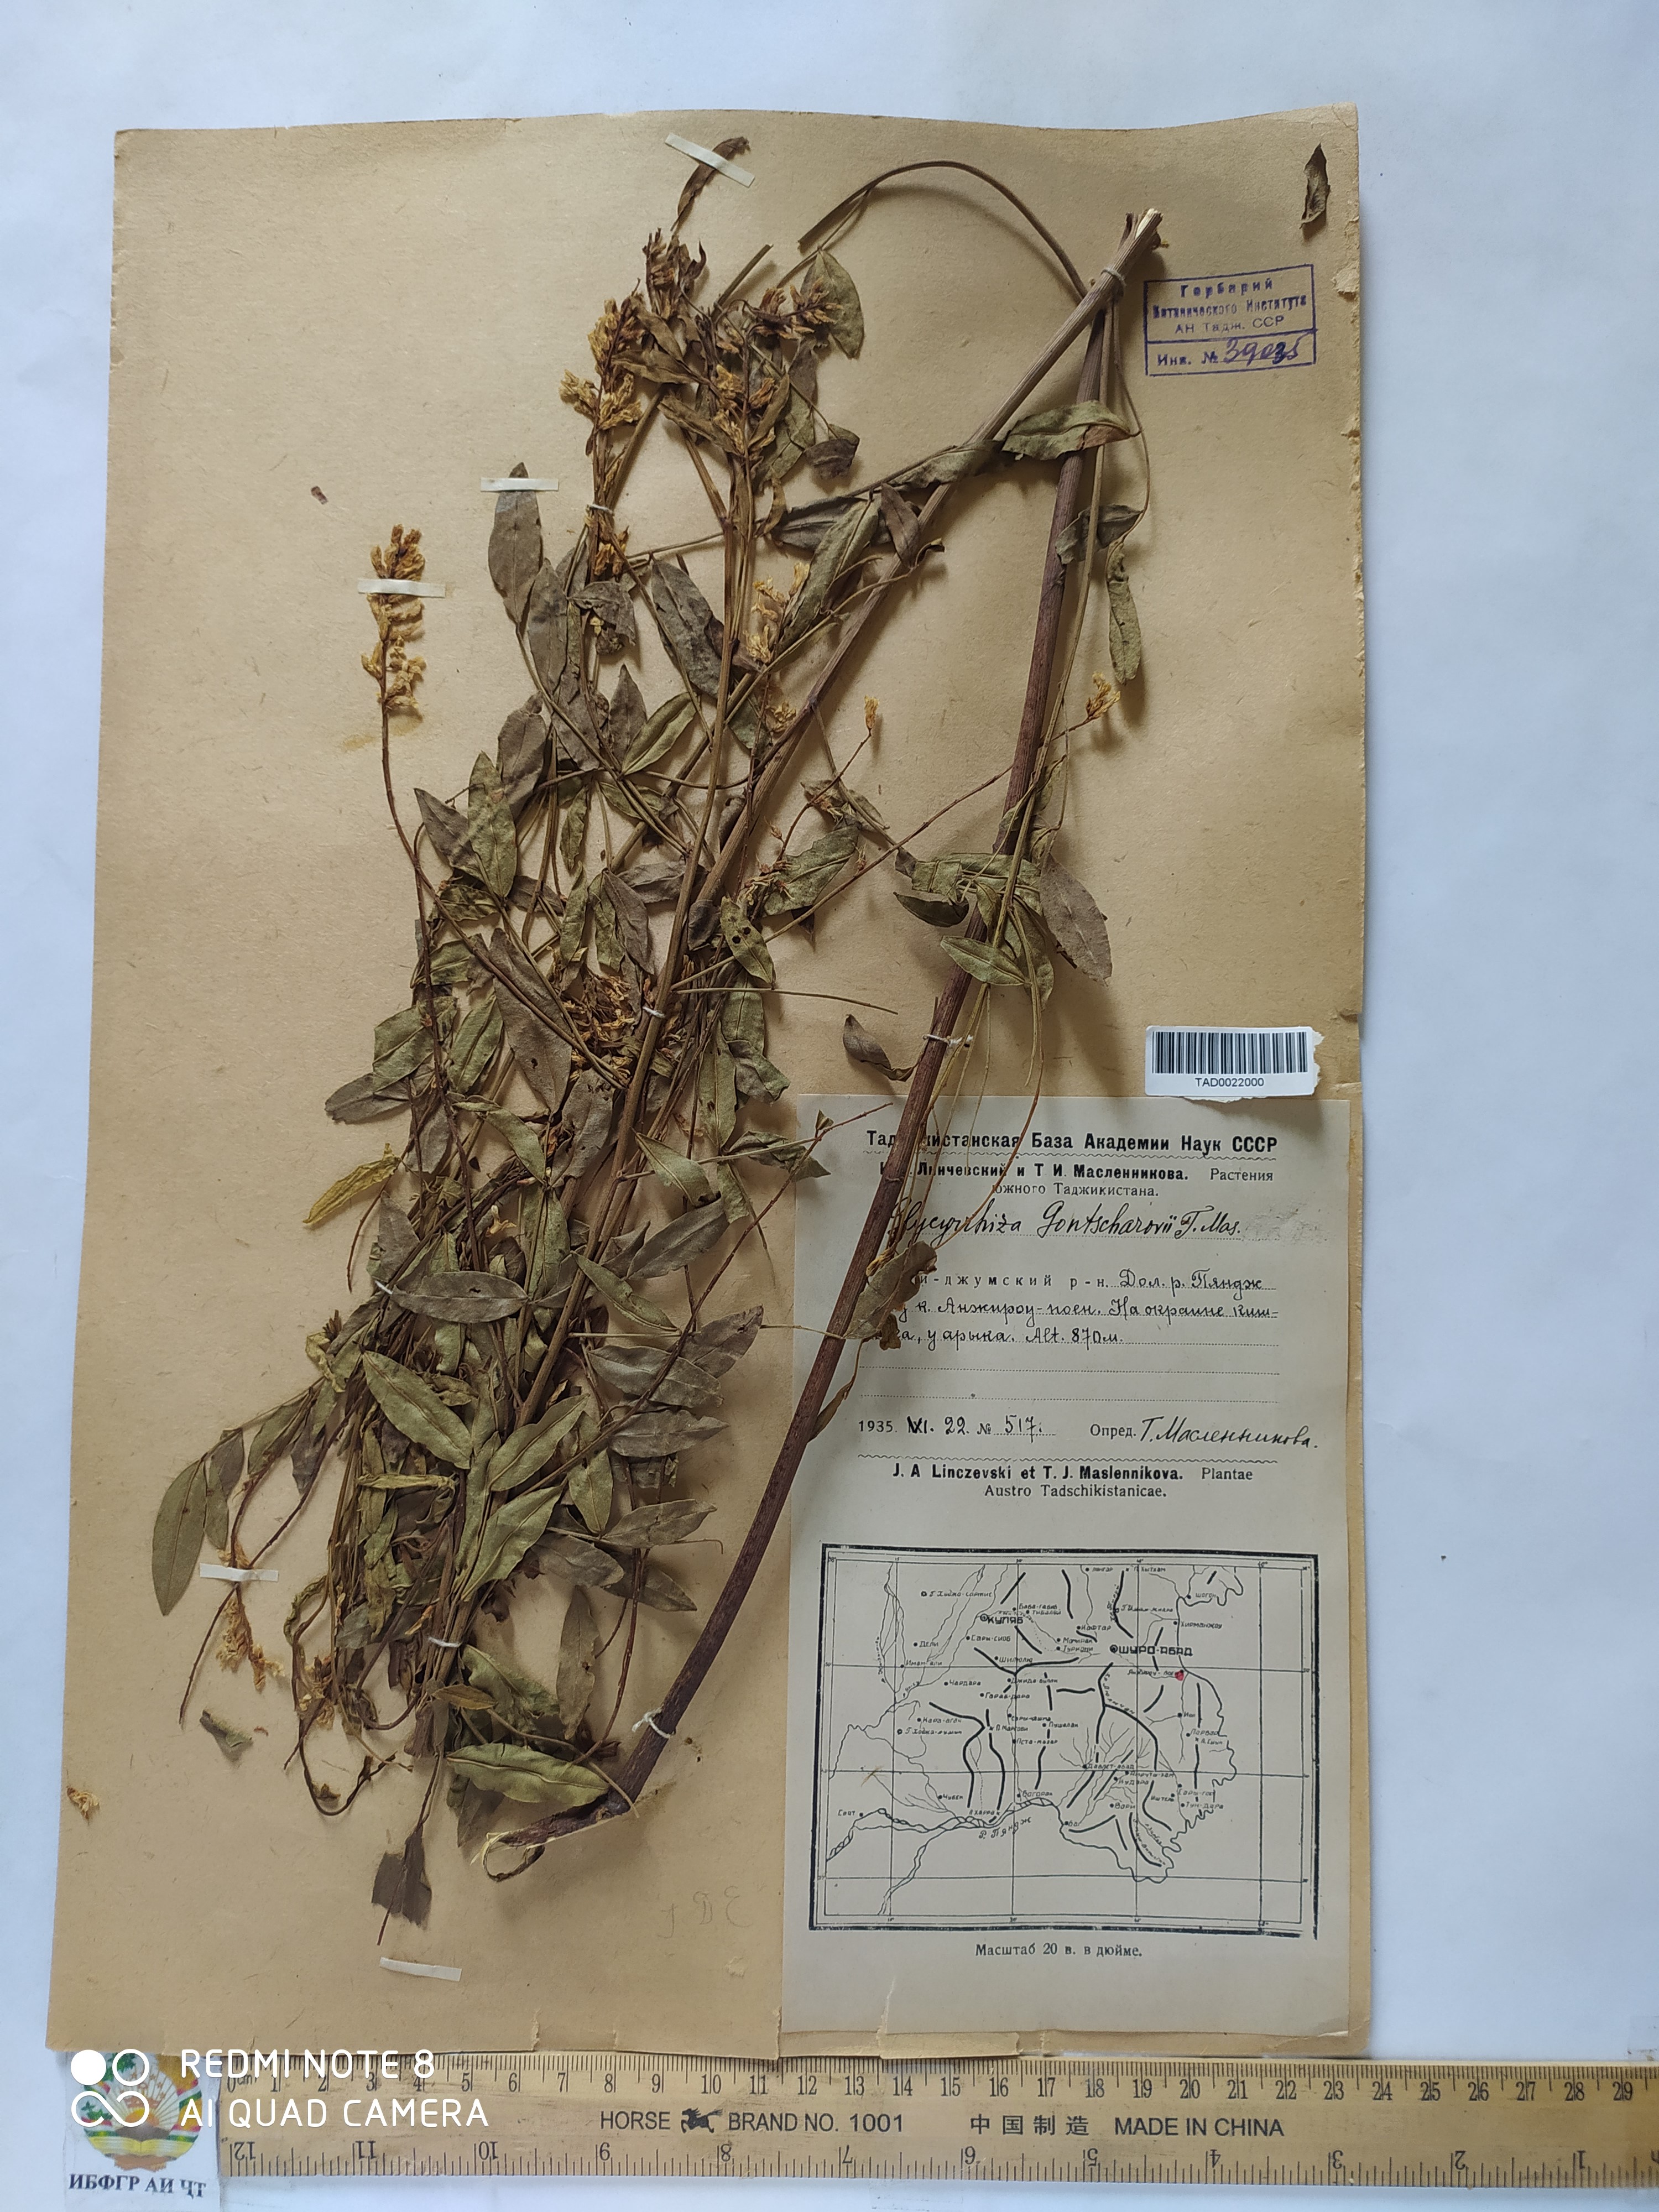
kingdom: Plantae
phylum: Tracheophyta
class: Magnoliopsida
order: Fabales
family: Fabaceae
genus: Glycyrrhiza
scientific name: Glycyrrhiza gontscharovii
